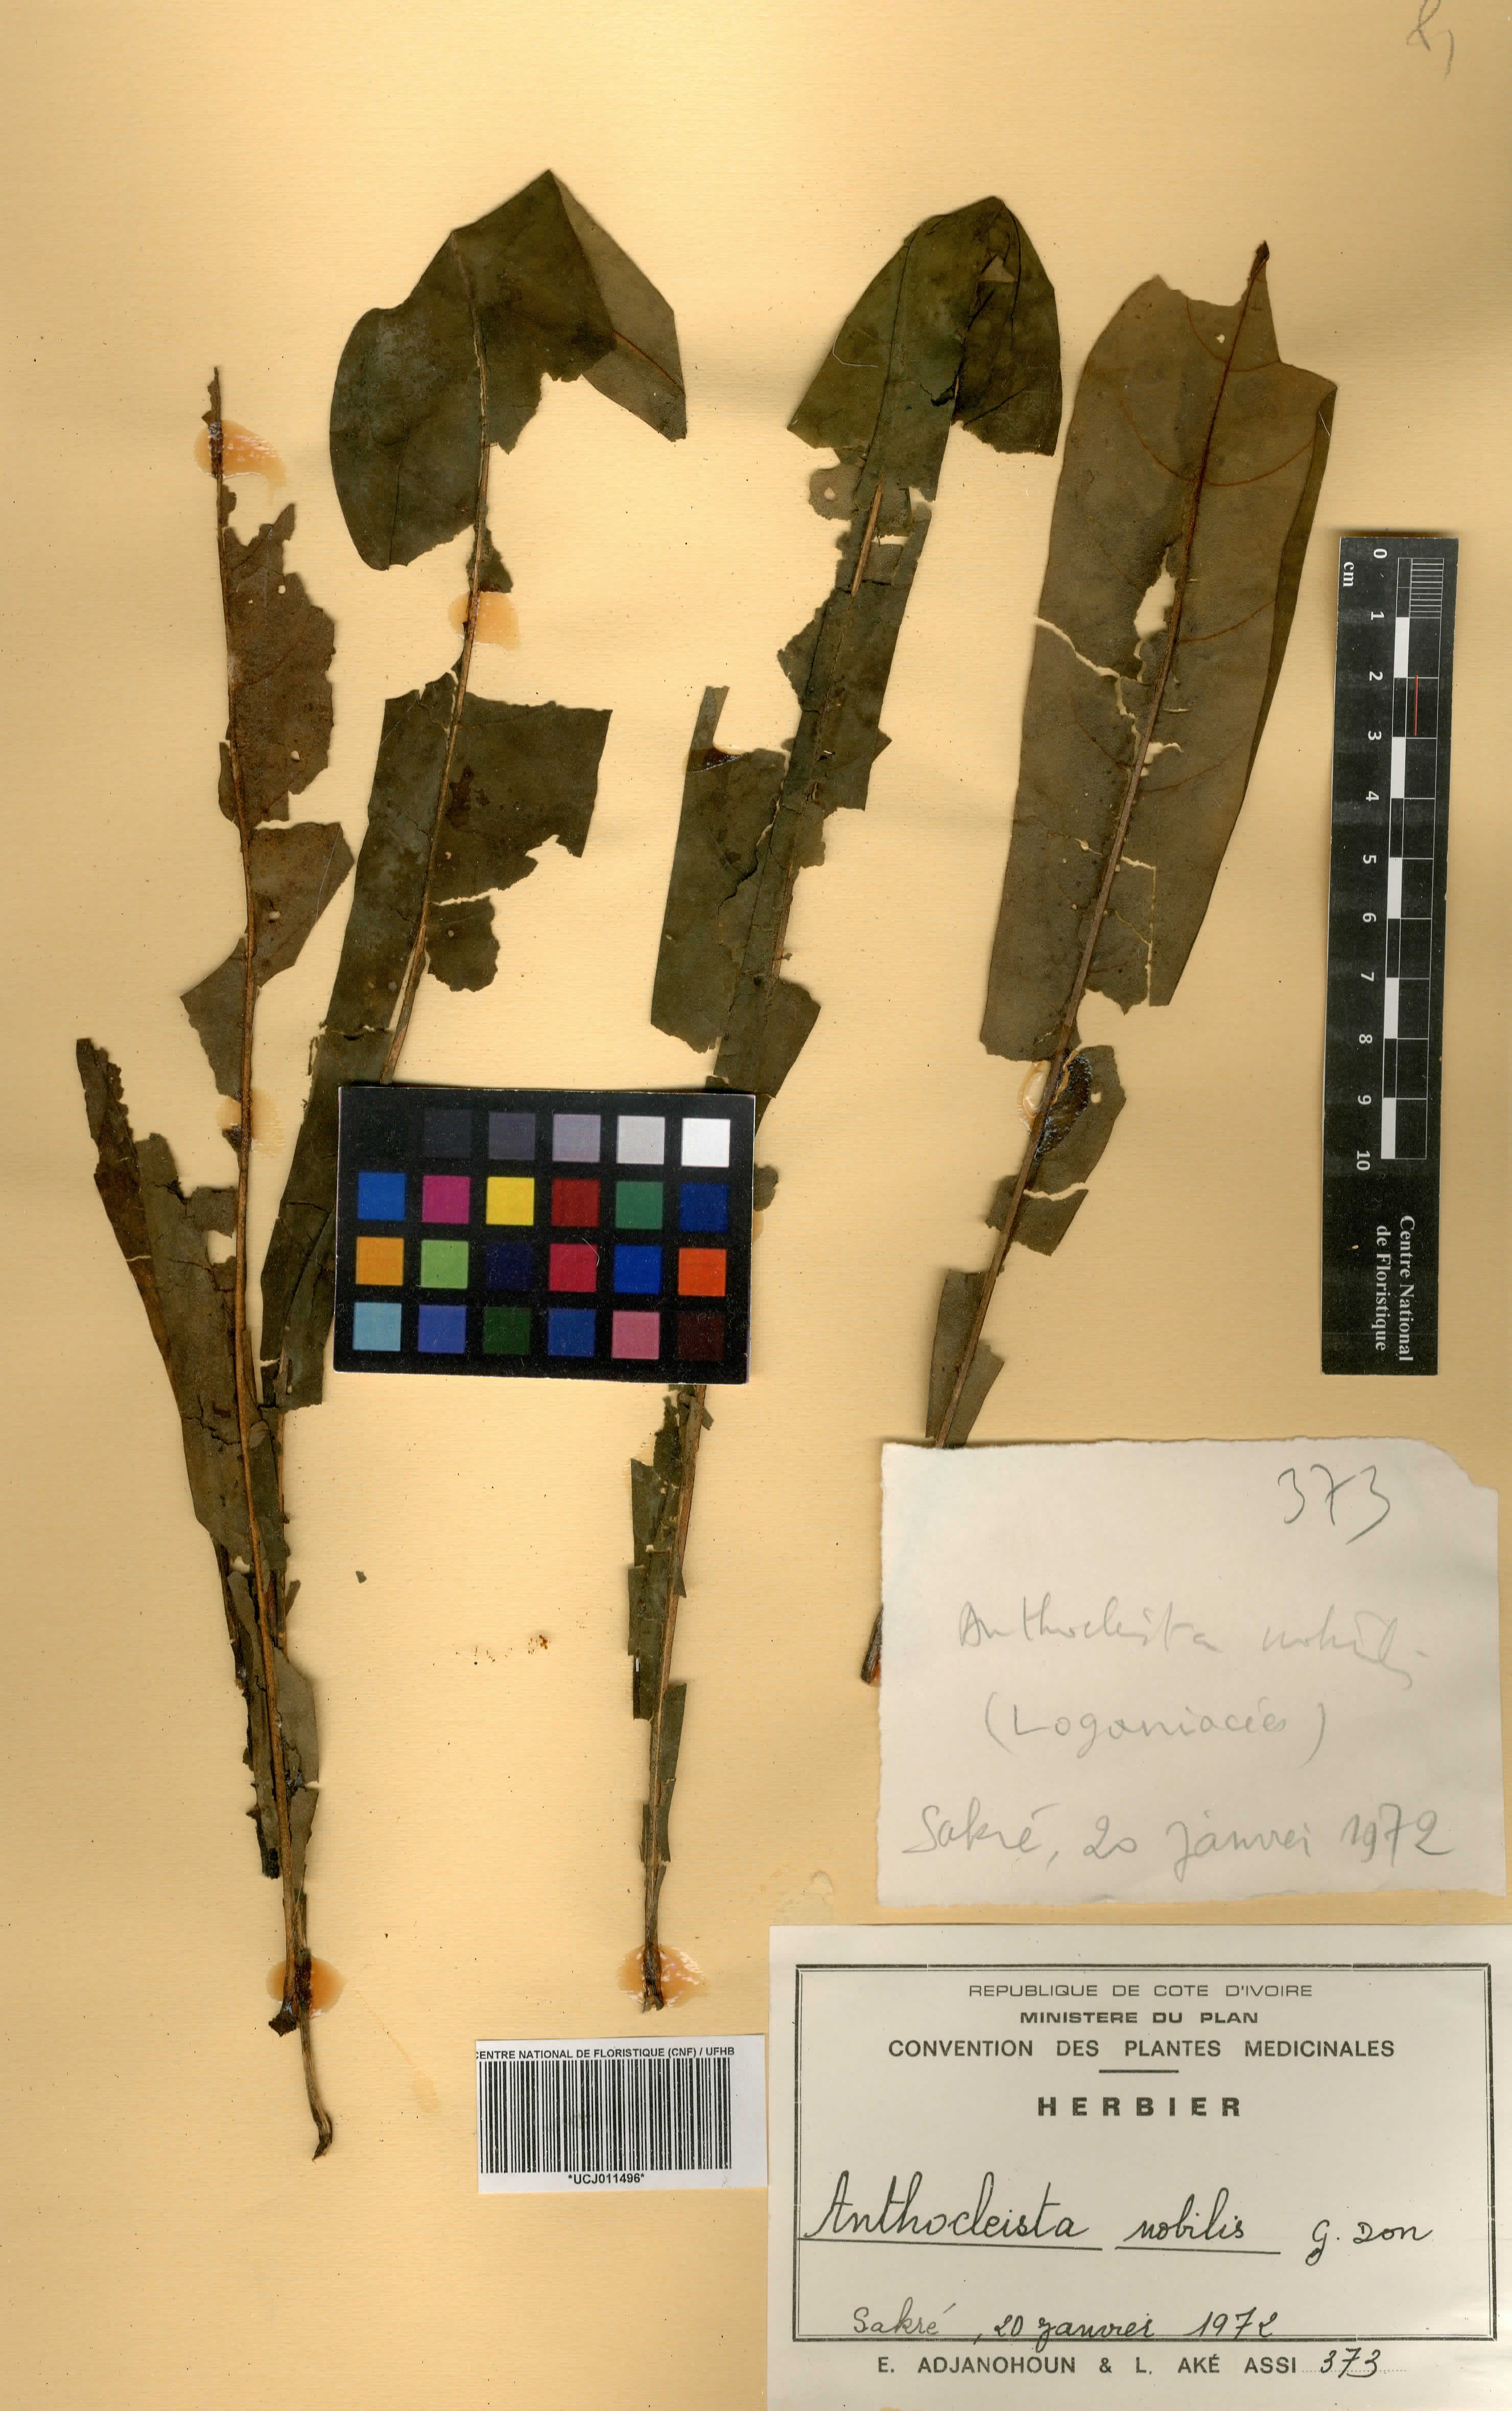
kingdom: Plantae
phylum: Tracheophyta
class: Magnoliopsida
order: Gentianales
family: Gentianaceae
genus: Anthocleista
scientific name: Anthocleista nobilis
